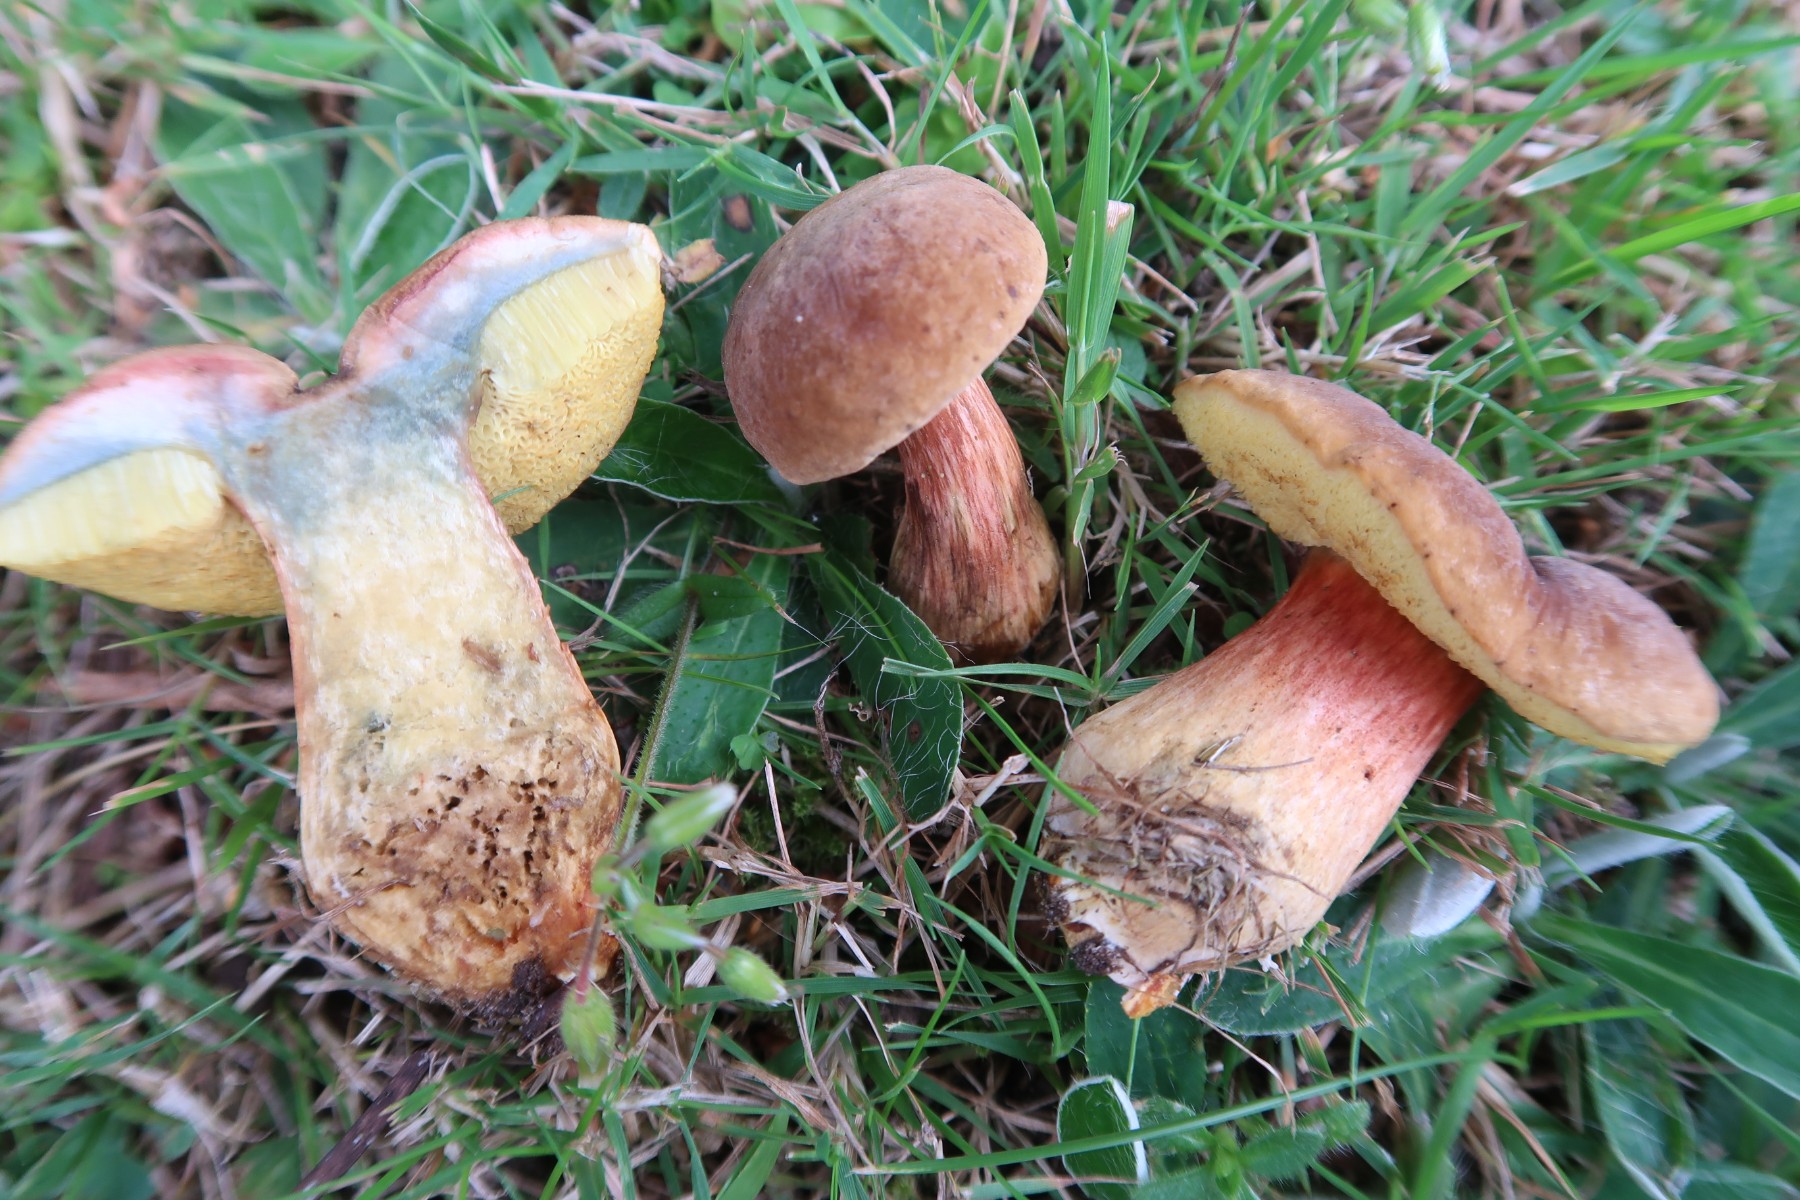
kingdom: Fungi
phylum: Basidiomycota
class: Agaricomycetes
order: Boletales
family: Boletaceae
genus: Hortiboletus
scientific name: Hortiboletus bubalinus
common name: aurora-rørhat
